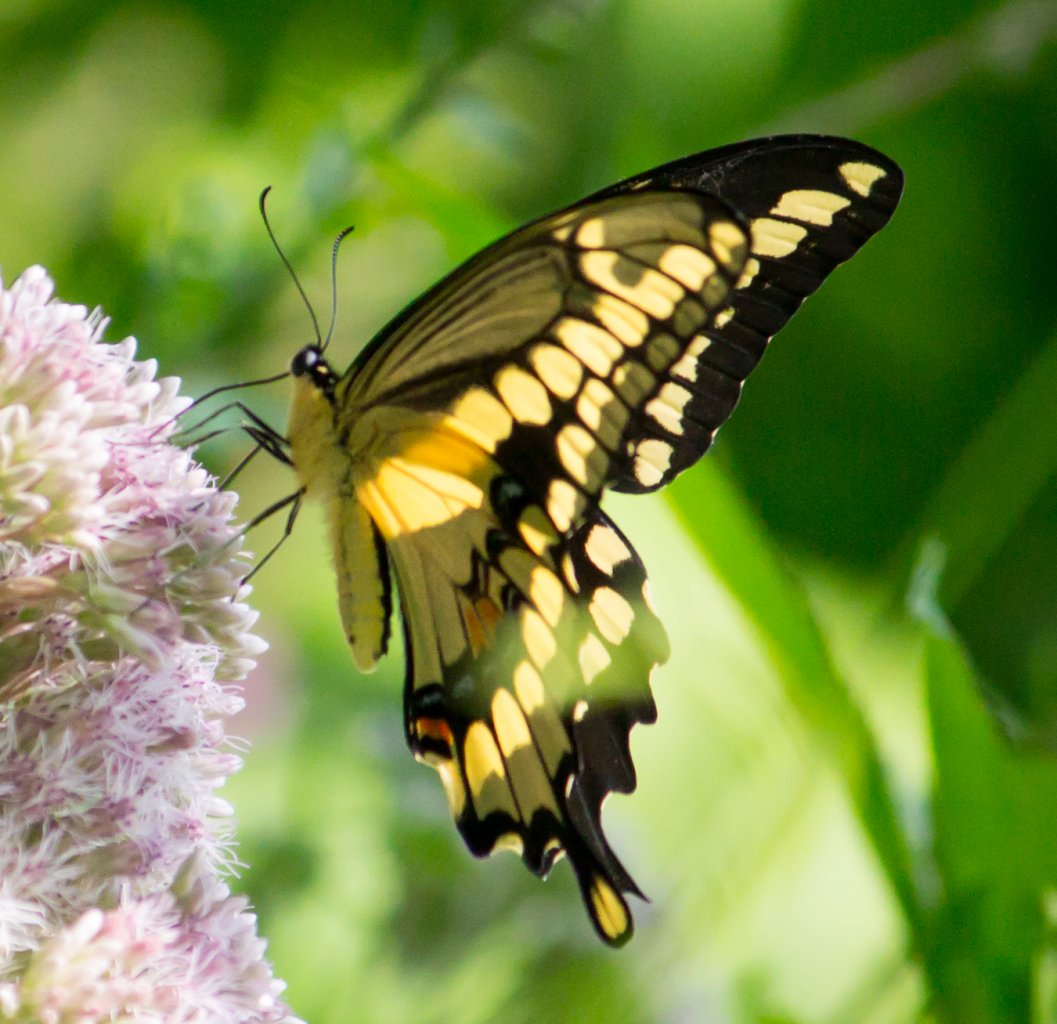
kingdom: Animalia
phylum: Arthropoda
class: Insecta
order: Lepidoptera
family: Papilionidae
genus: Papilio
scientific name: Papilio cresphontes
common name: Eastern Giant Swallowtail
